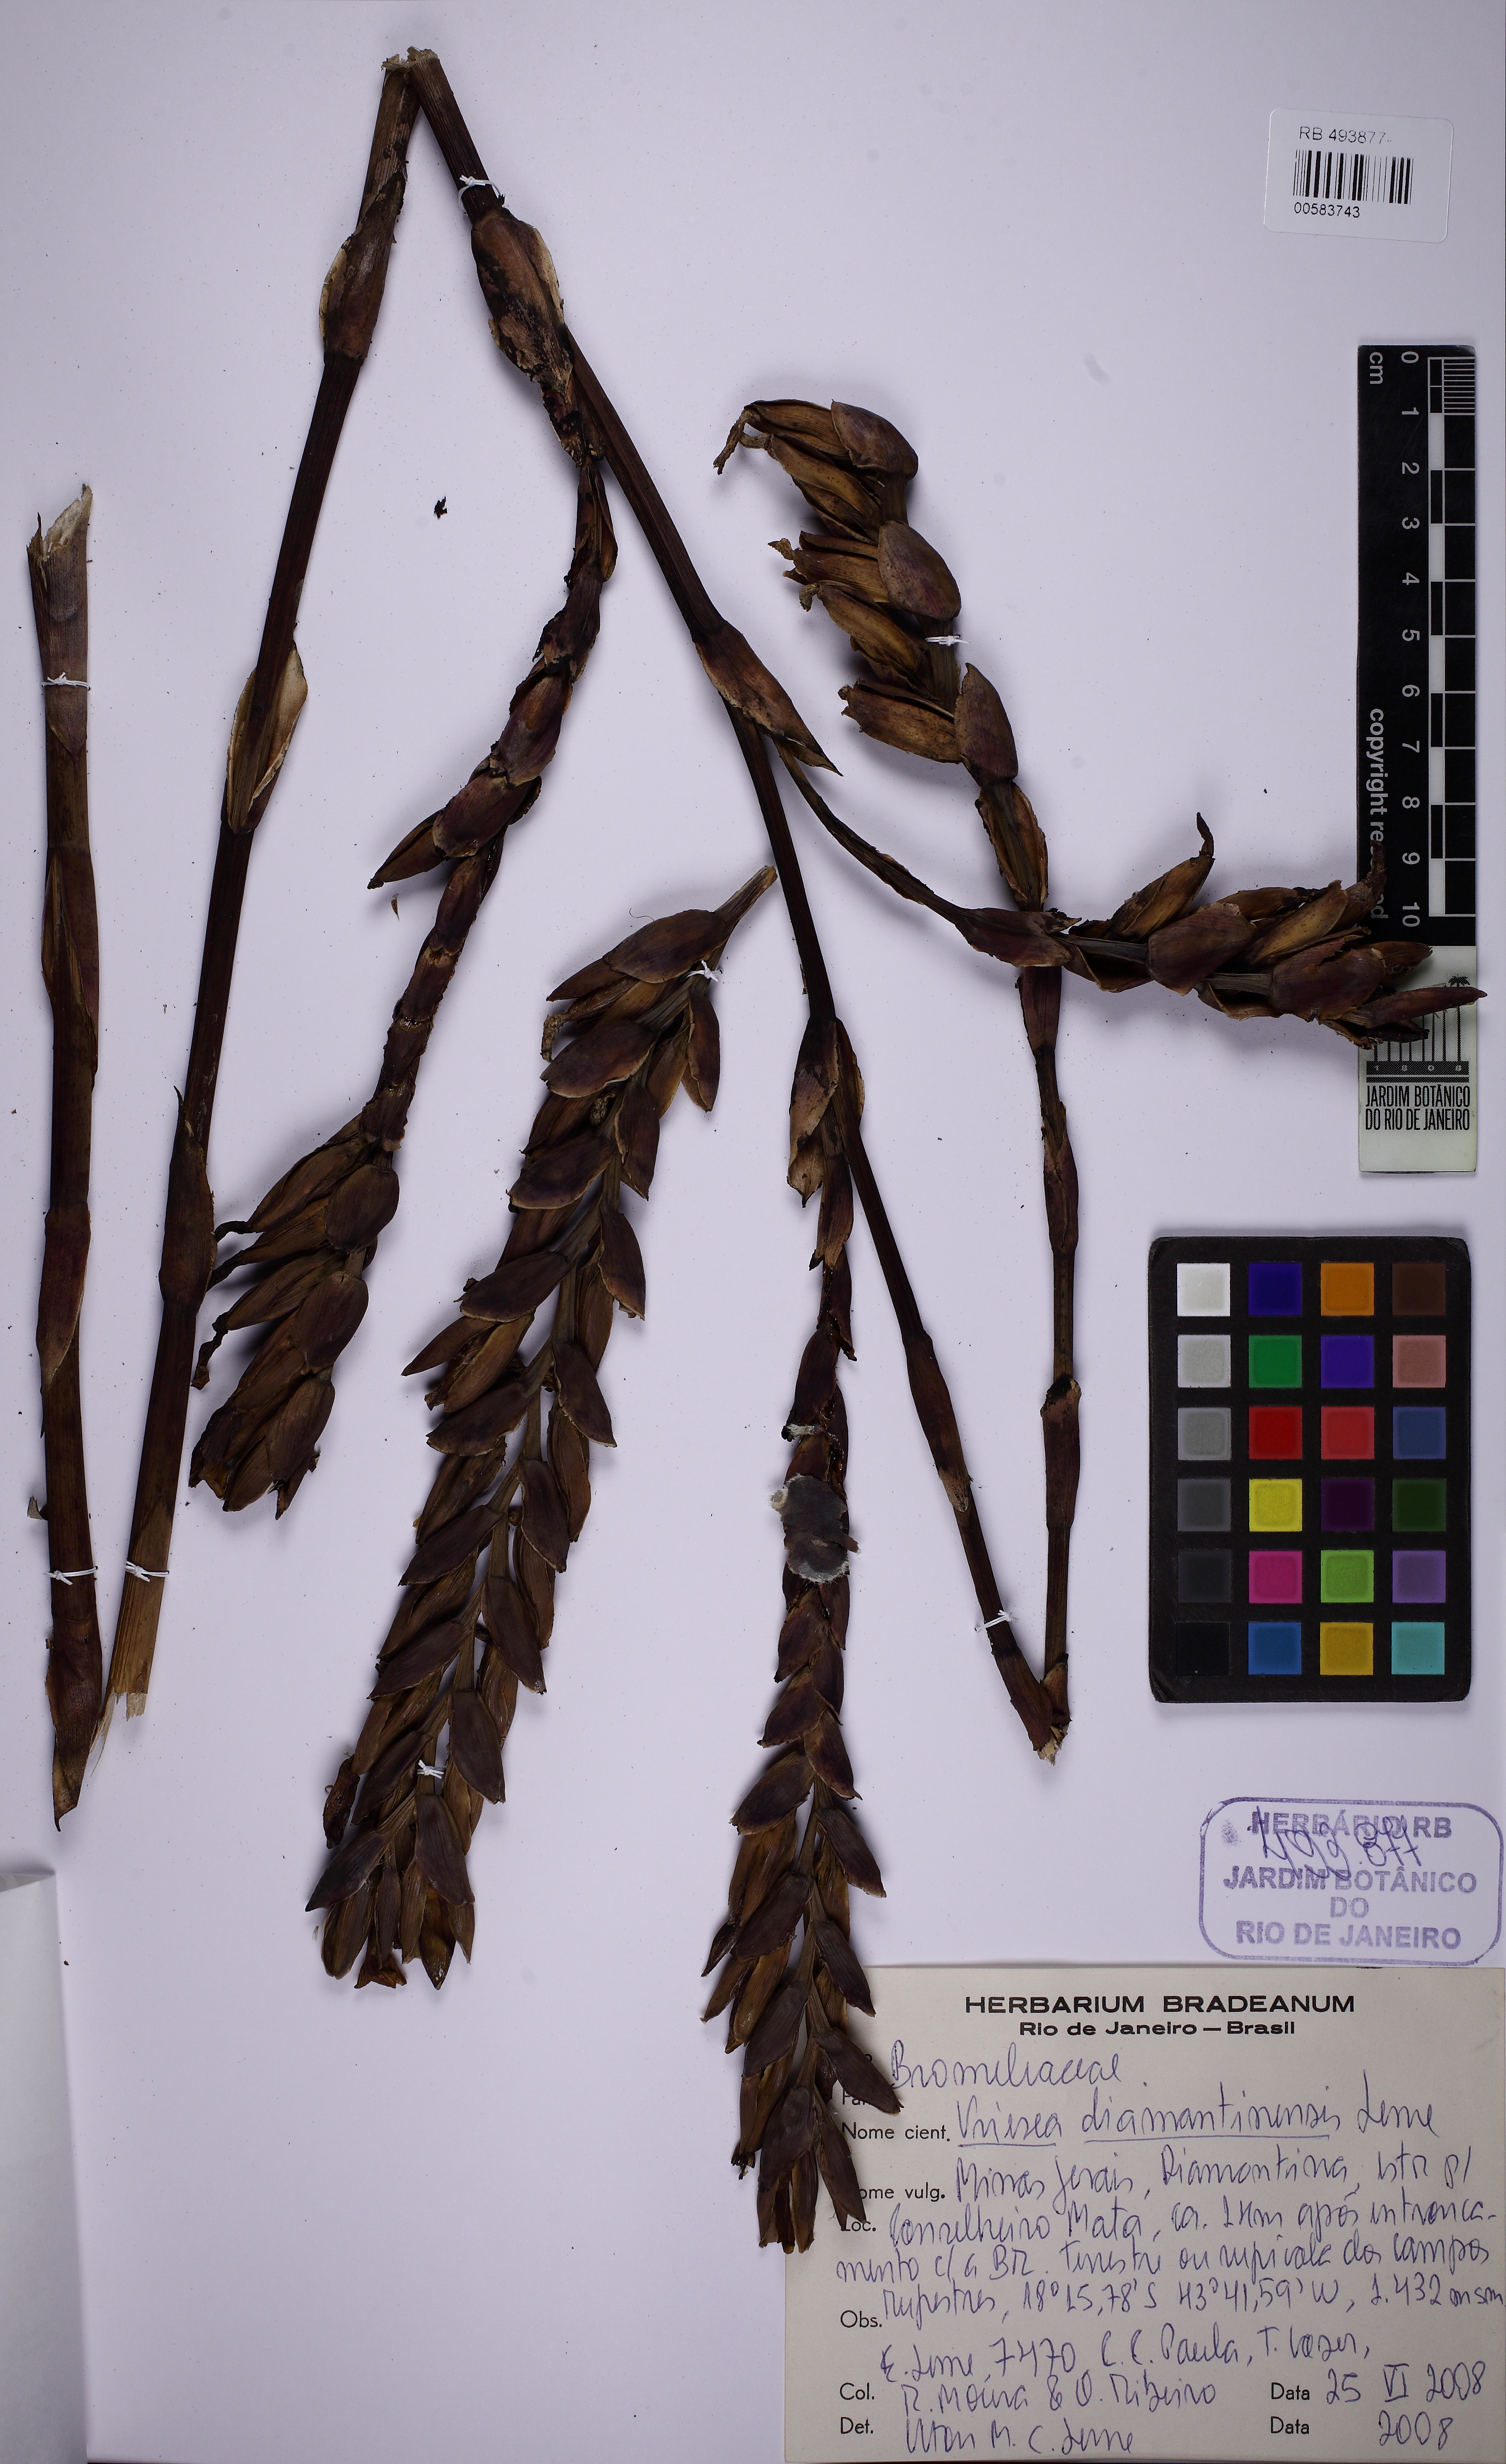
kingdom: Plantae
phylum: Tracheophyta
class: Liliopsida
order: Poales
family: Bromeliaceae
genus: Vriesea
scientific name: Vriesea diamantinensis
